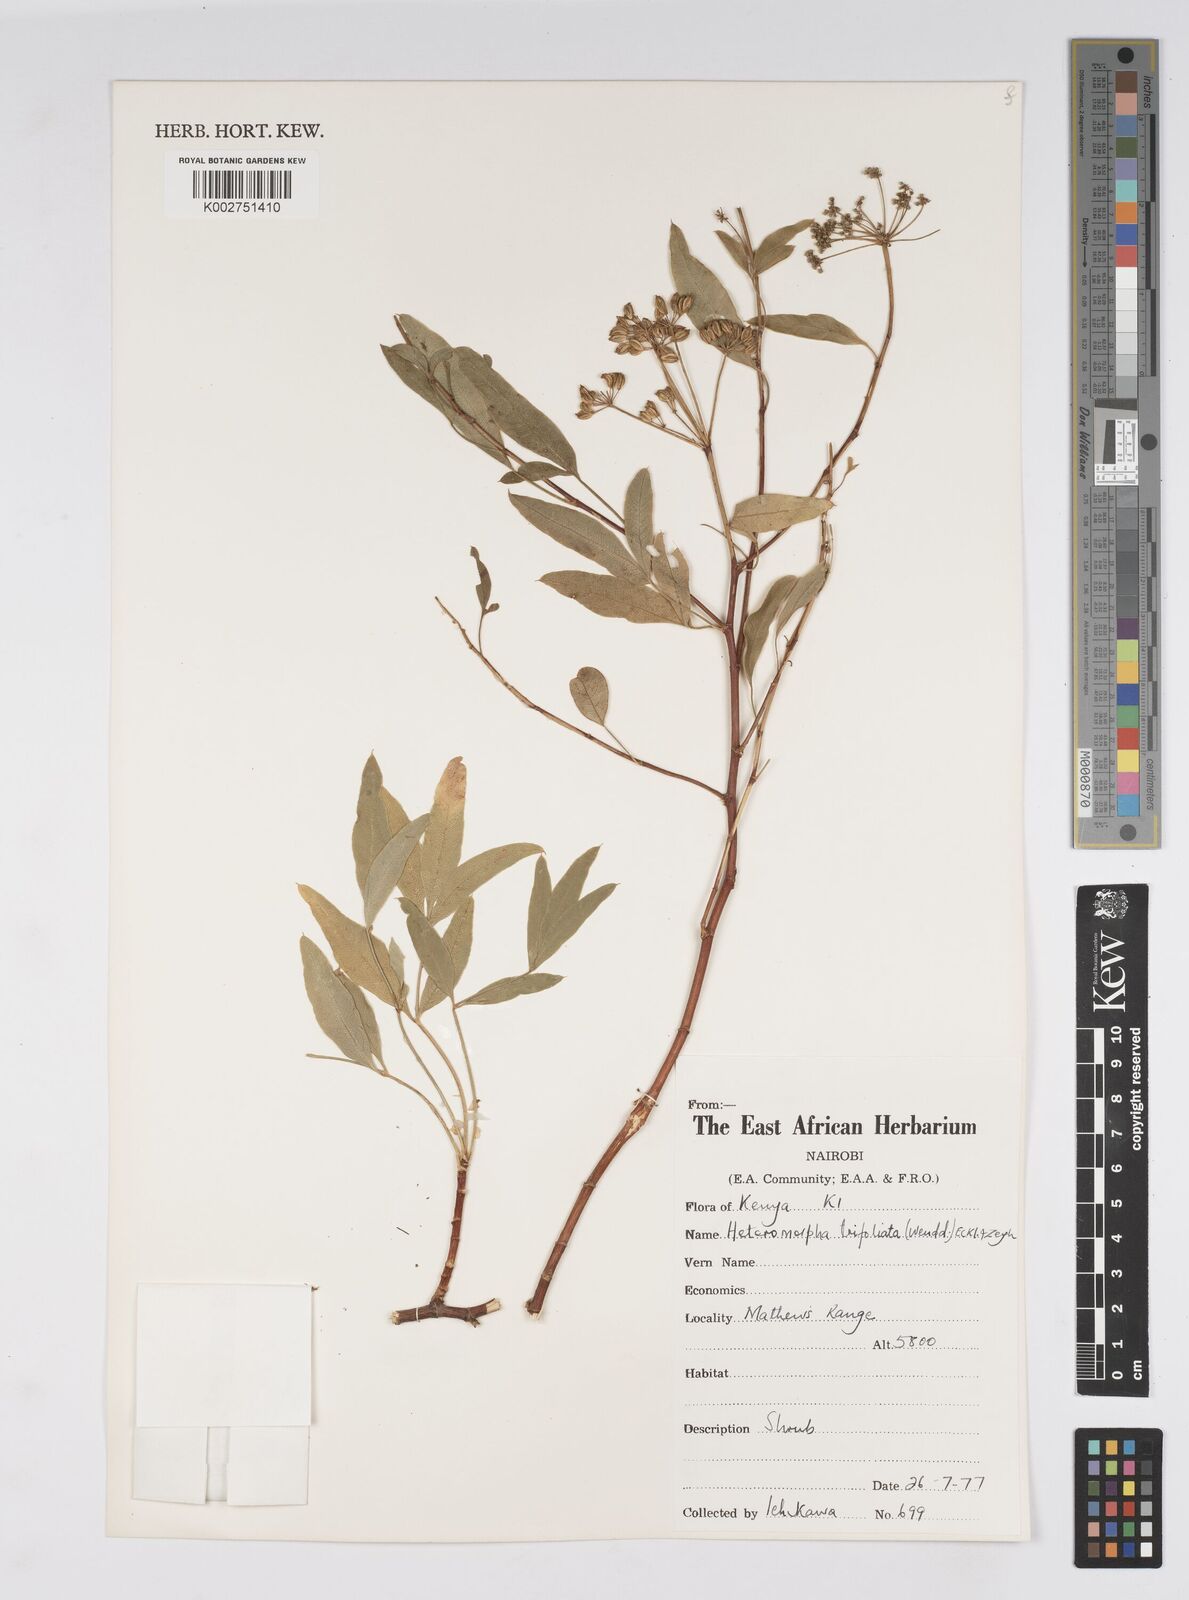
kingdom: Plantae
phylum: Tracheophyta
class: Magnoliopsida
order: Apiales
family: Apiaceae
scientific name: Apiaceae
